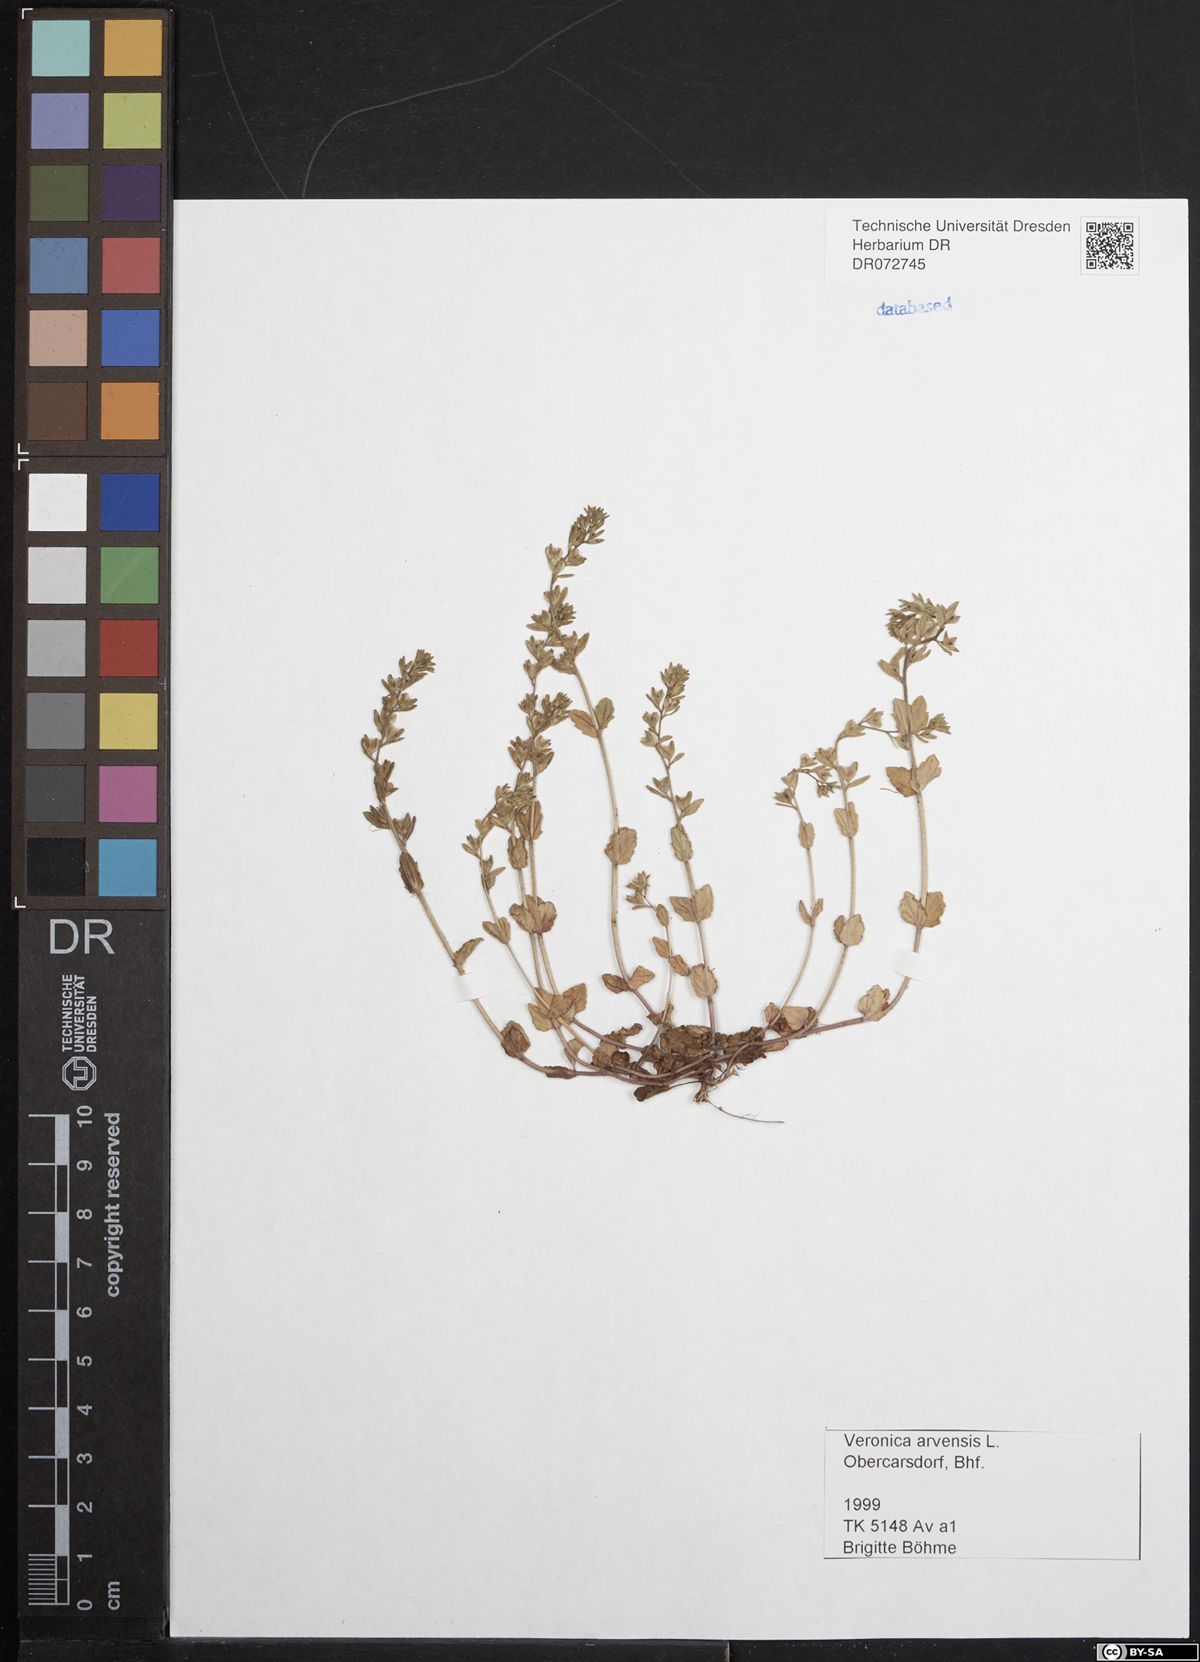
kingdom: Plantae
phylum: Tracheophyta
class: Magnoliopsida
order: Lamiales
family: Plantaginaceae
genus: Veronica
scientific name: Veronica arvensis
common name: Corn speedwell
